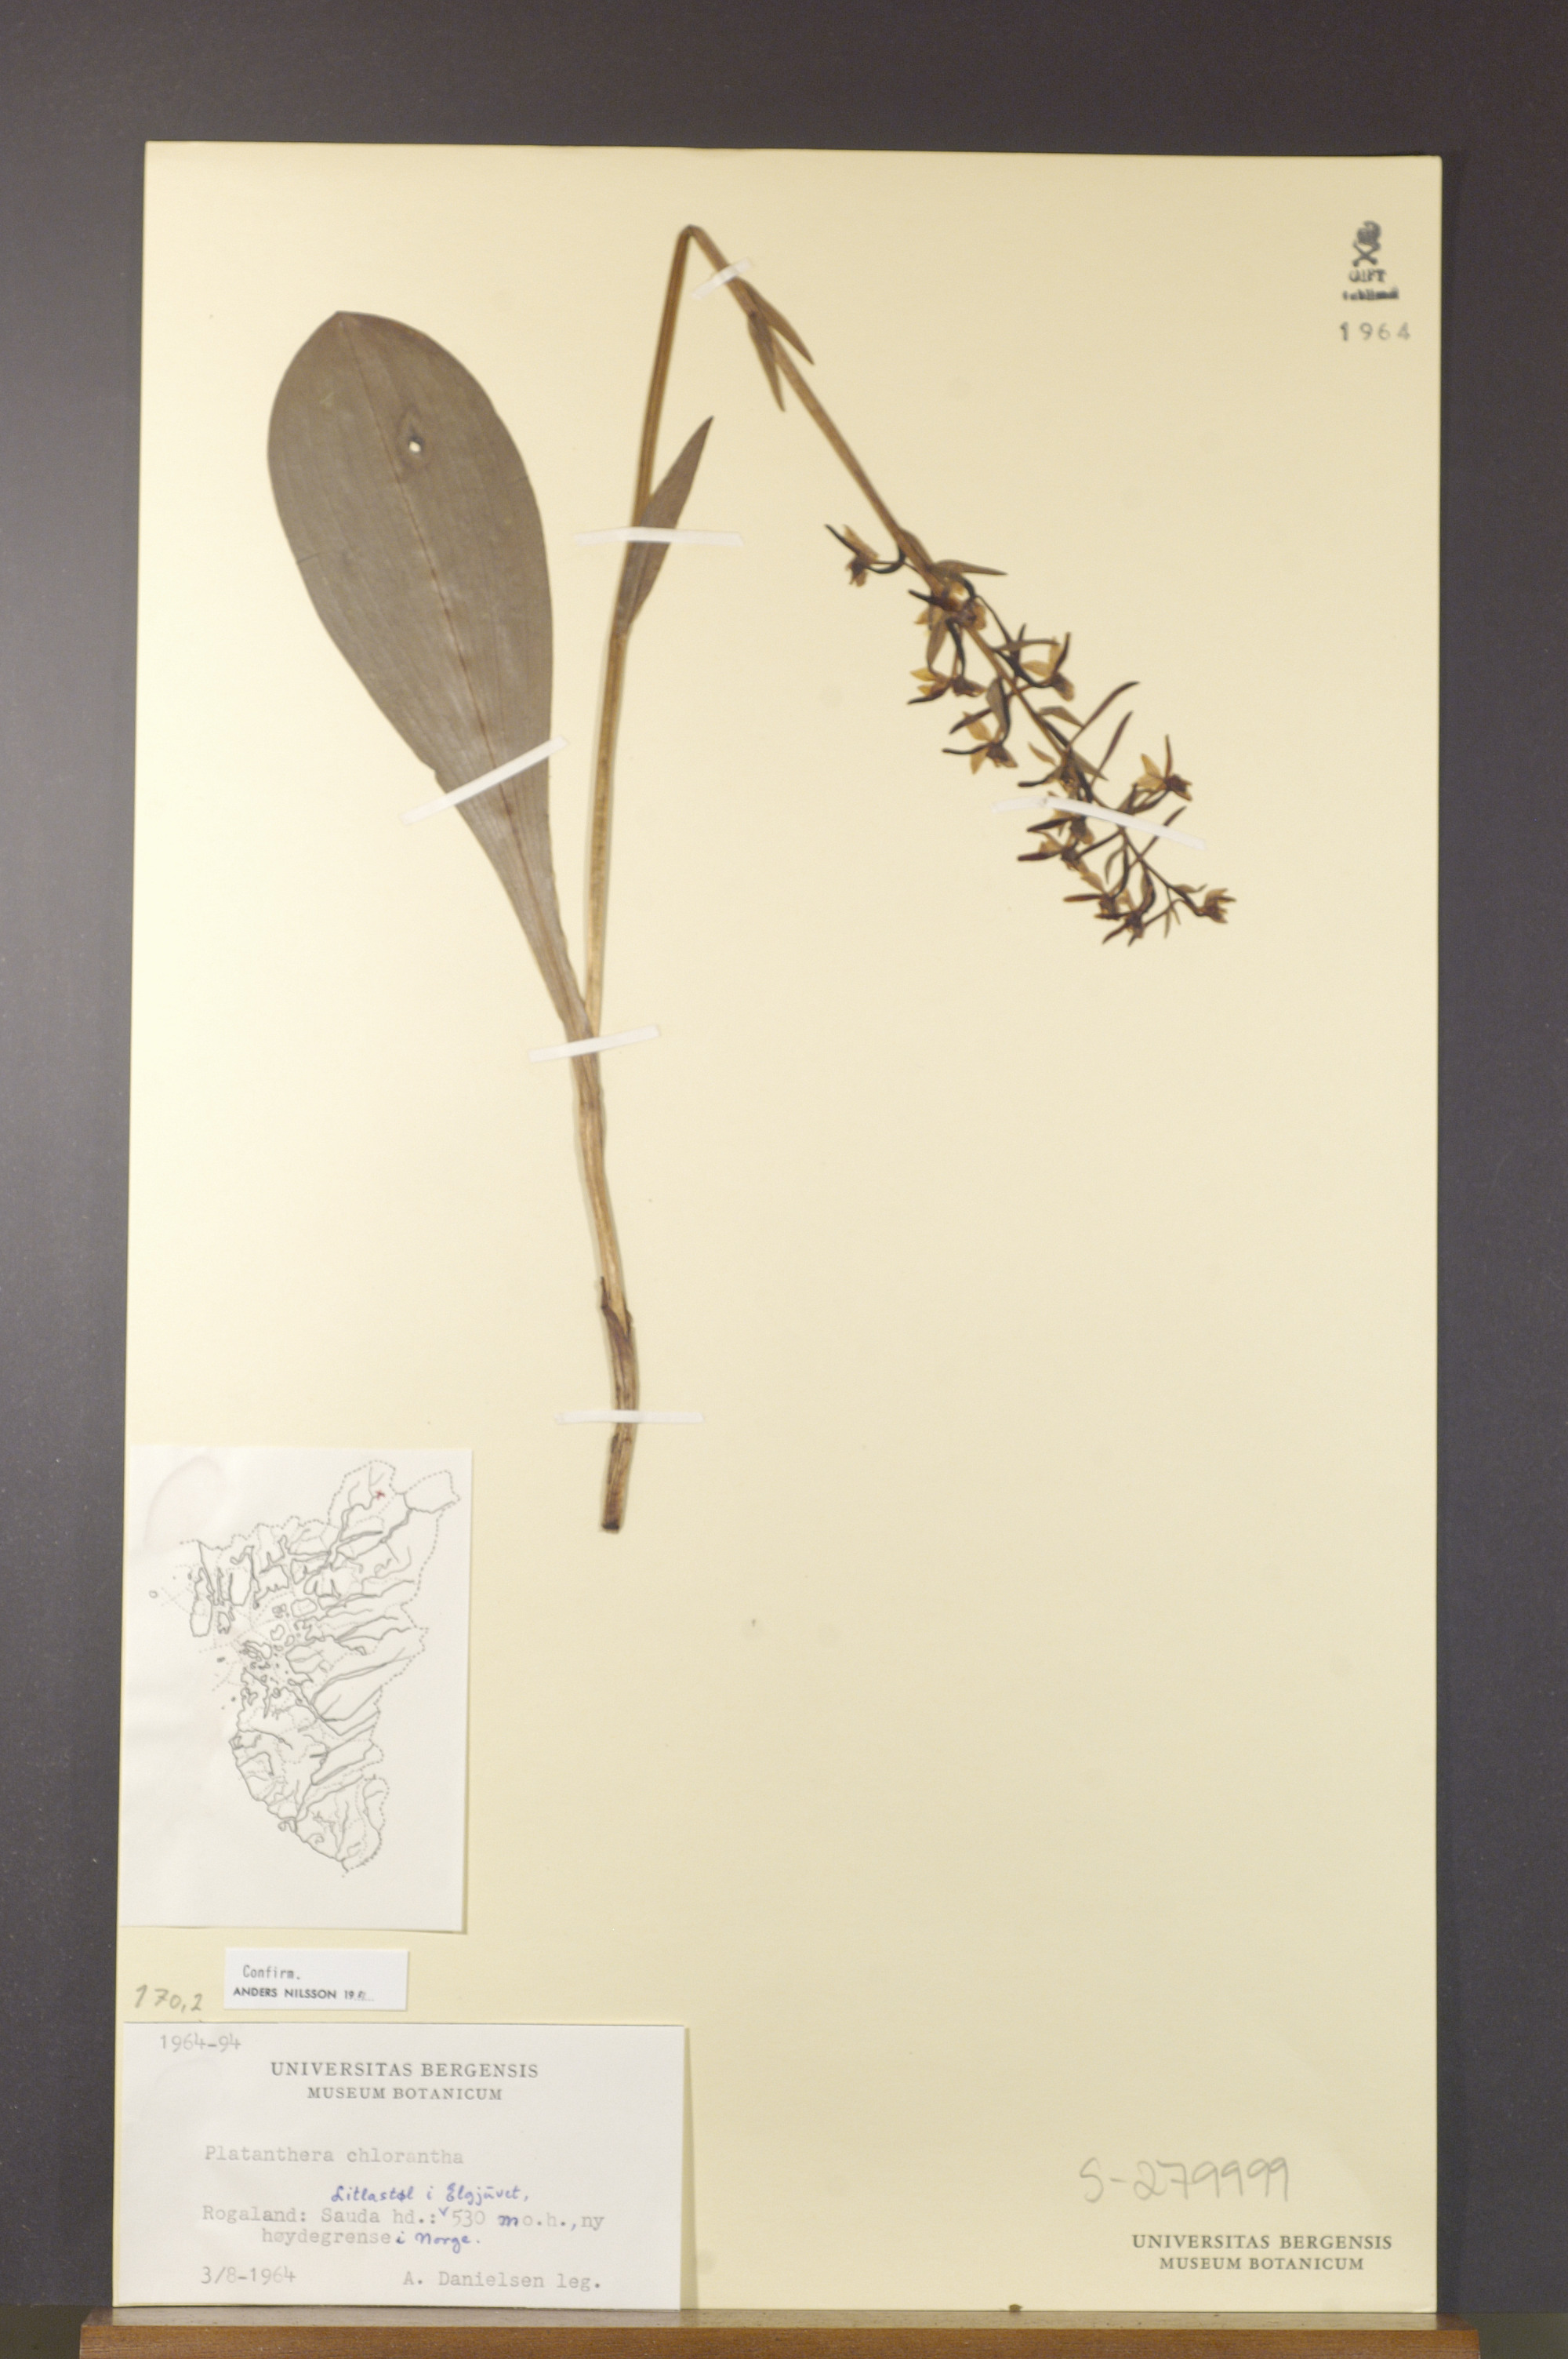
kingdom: Plantae
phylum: Tracheophyta
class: Liliopsida
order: Asparagales
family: Orchidaceae
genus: Platanthera
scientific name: Platanthera chlorantha
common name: Greater butterfly-orchid
